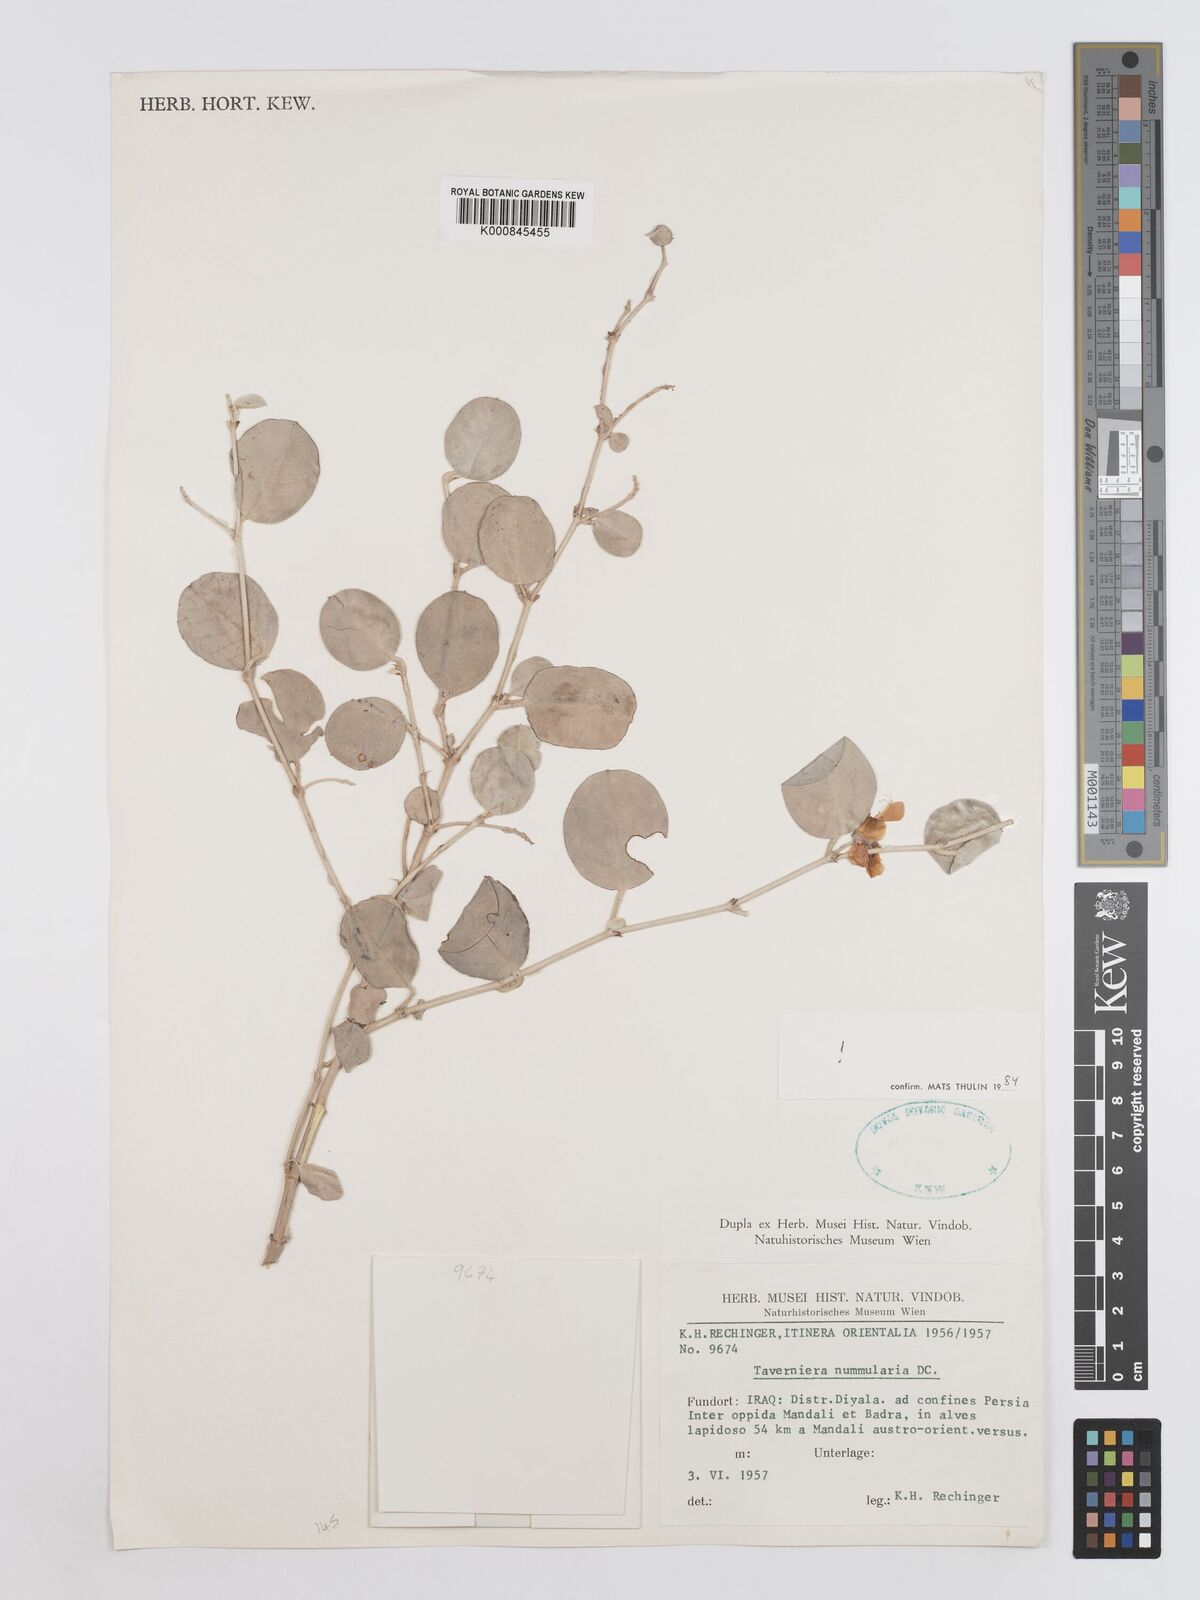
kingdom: Plantae
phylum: Tracheophyta
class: Magnoliopsida
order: Fabales
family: Fabaceae
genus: Taverniera
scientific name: Taverniera nummularia
